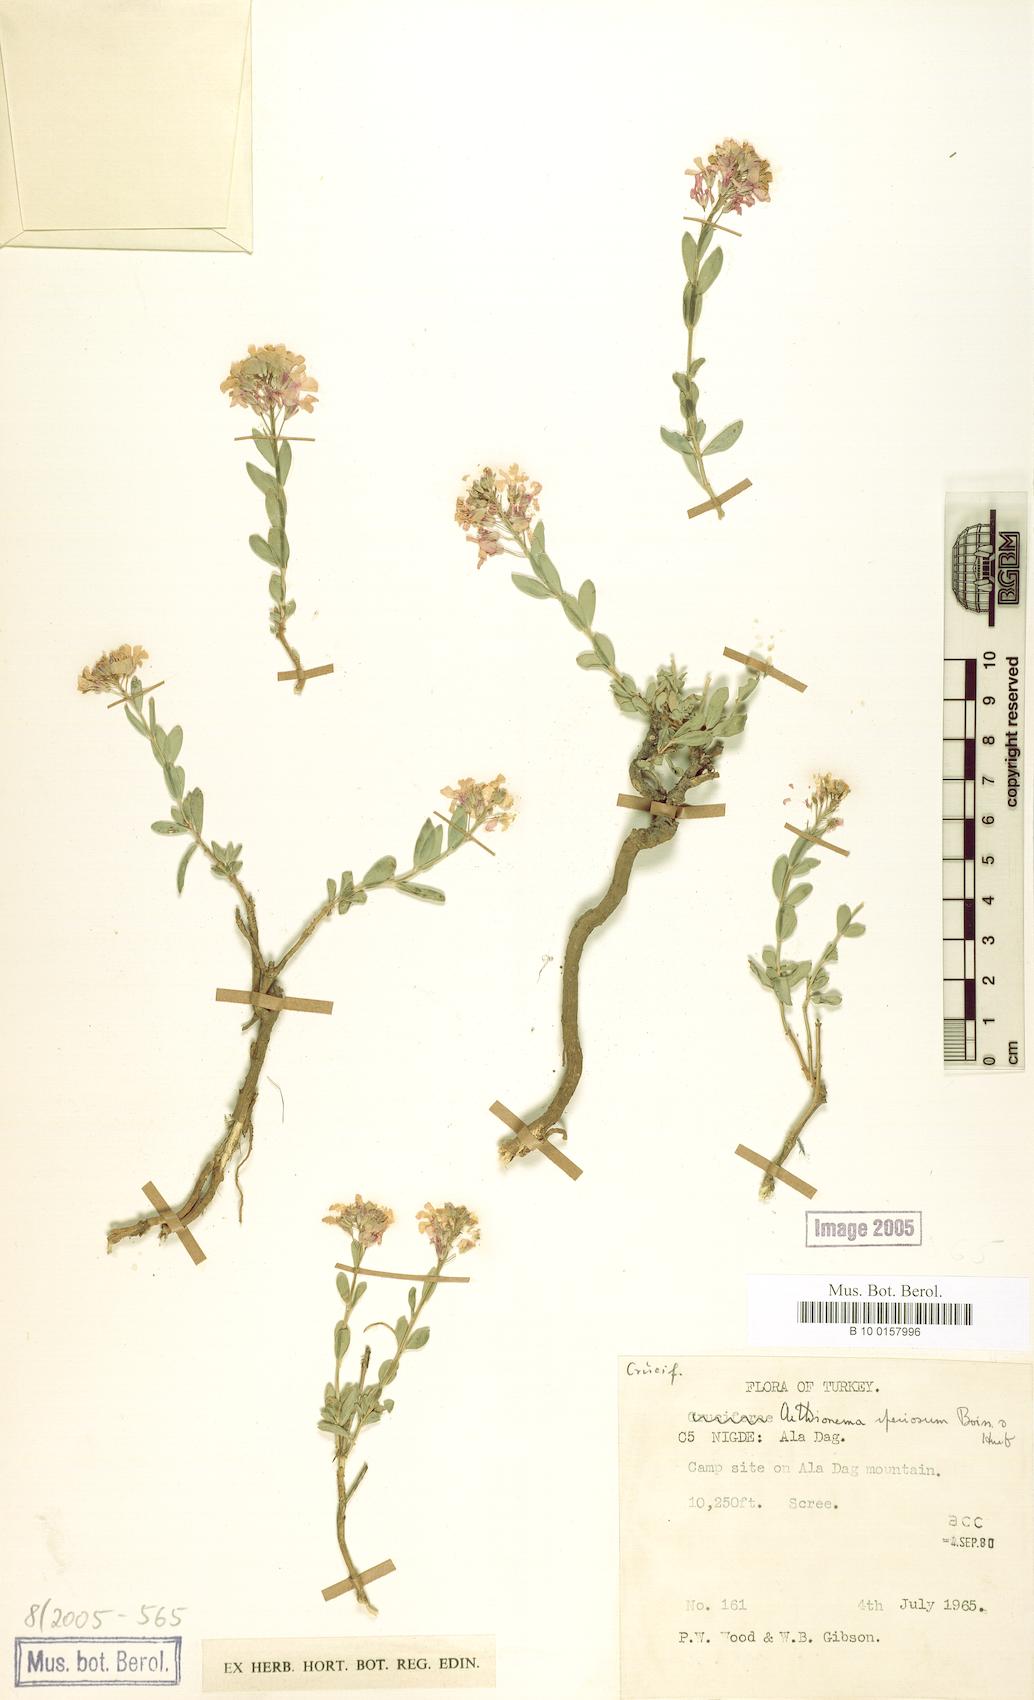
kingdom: Plantae
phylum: Tracheophyta
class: Magnoliopsida
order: Brassicales
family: Brassicaceae
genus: Aethionema
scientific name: Aethionema speciosum
